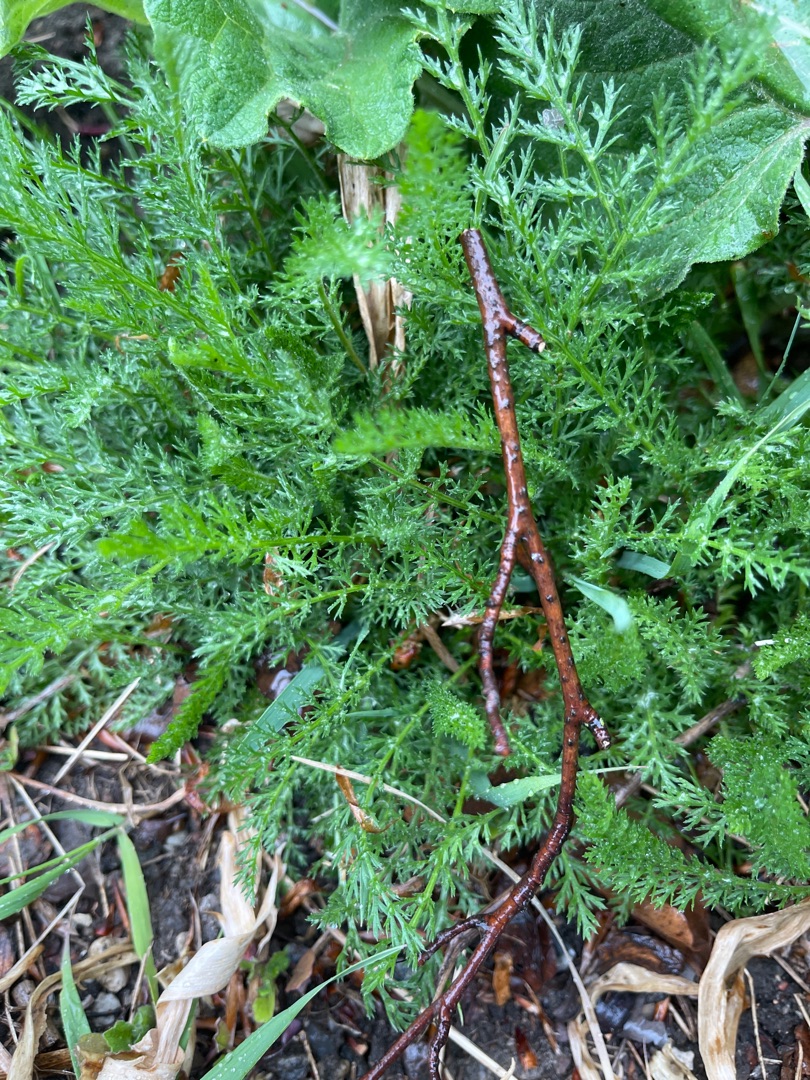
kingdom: Plantae
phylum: Tracheophyta
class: Magnoliopsida
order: Asterales
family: Asteraceae
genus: Achillea
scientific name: Achillea millefolium
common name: Almindelig røllike
